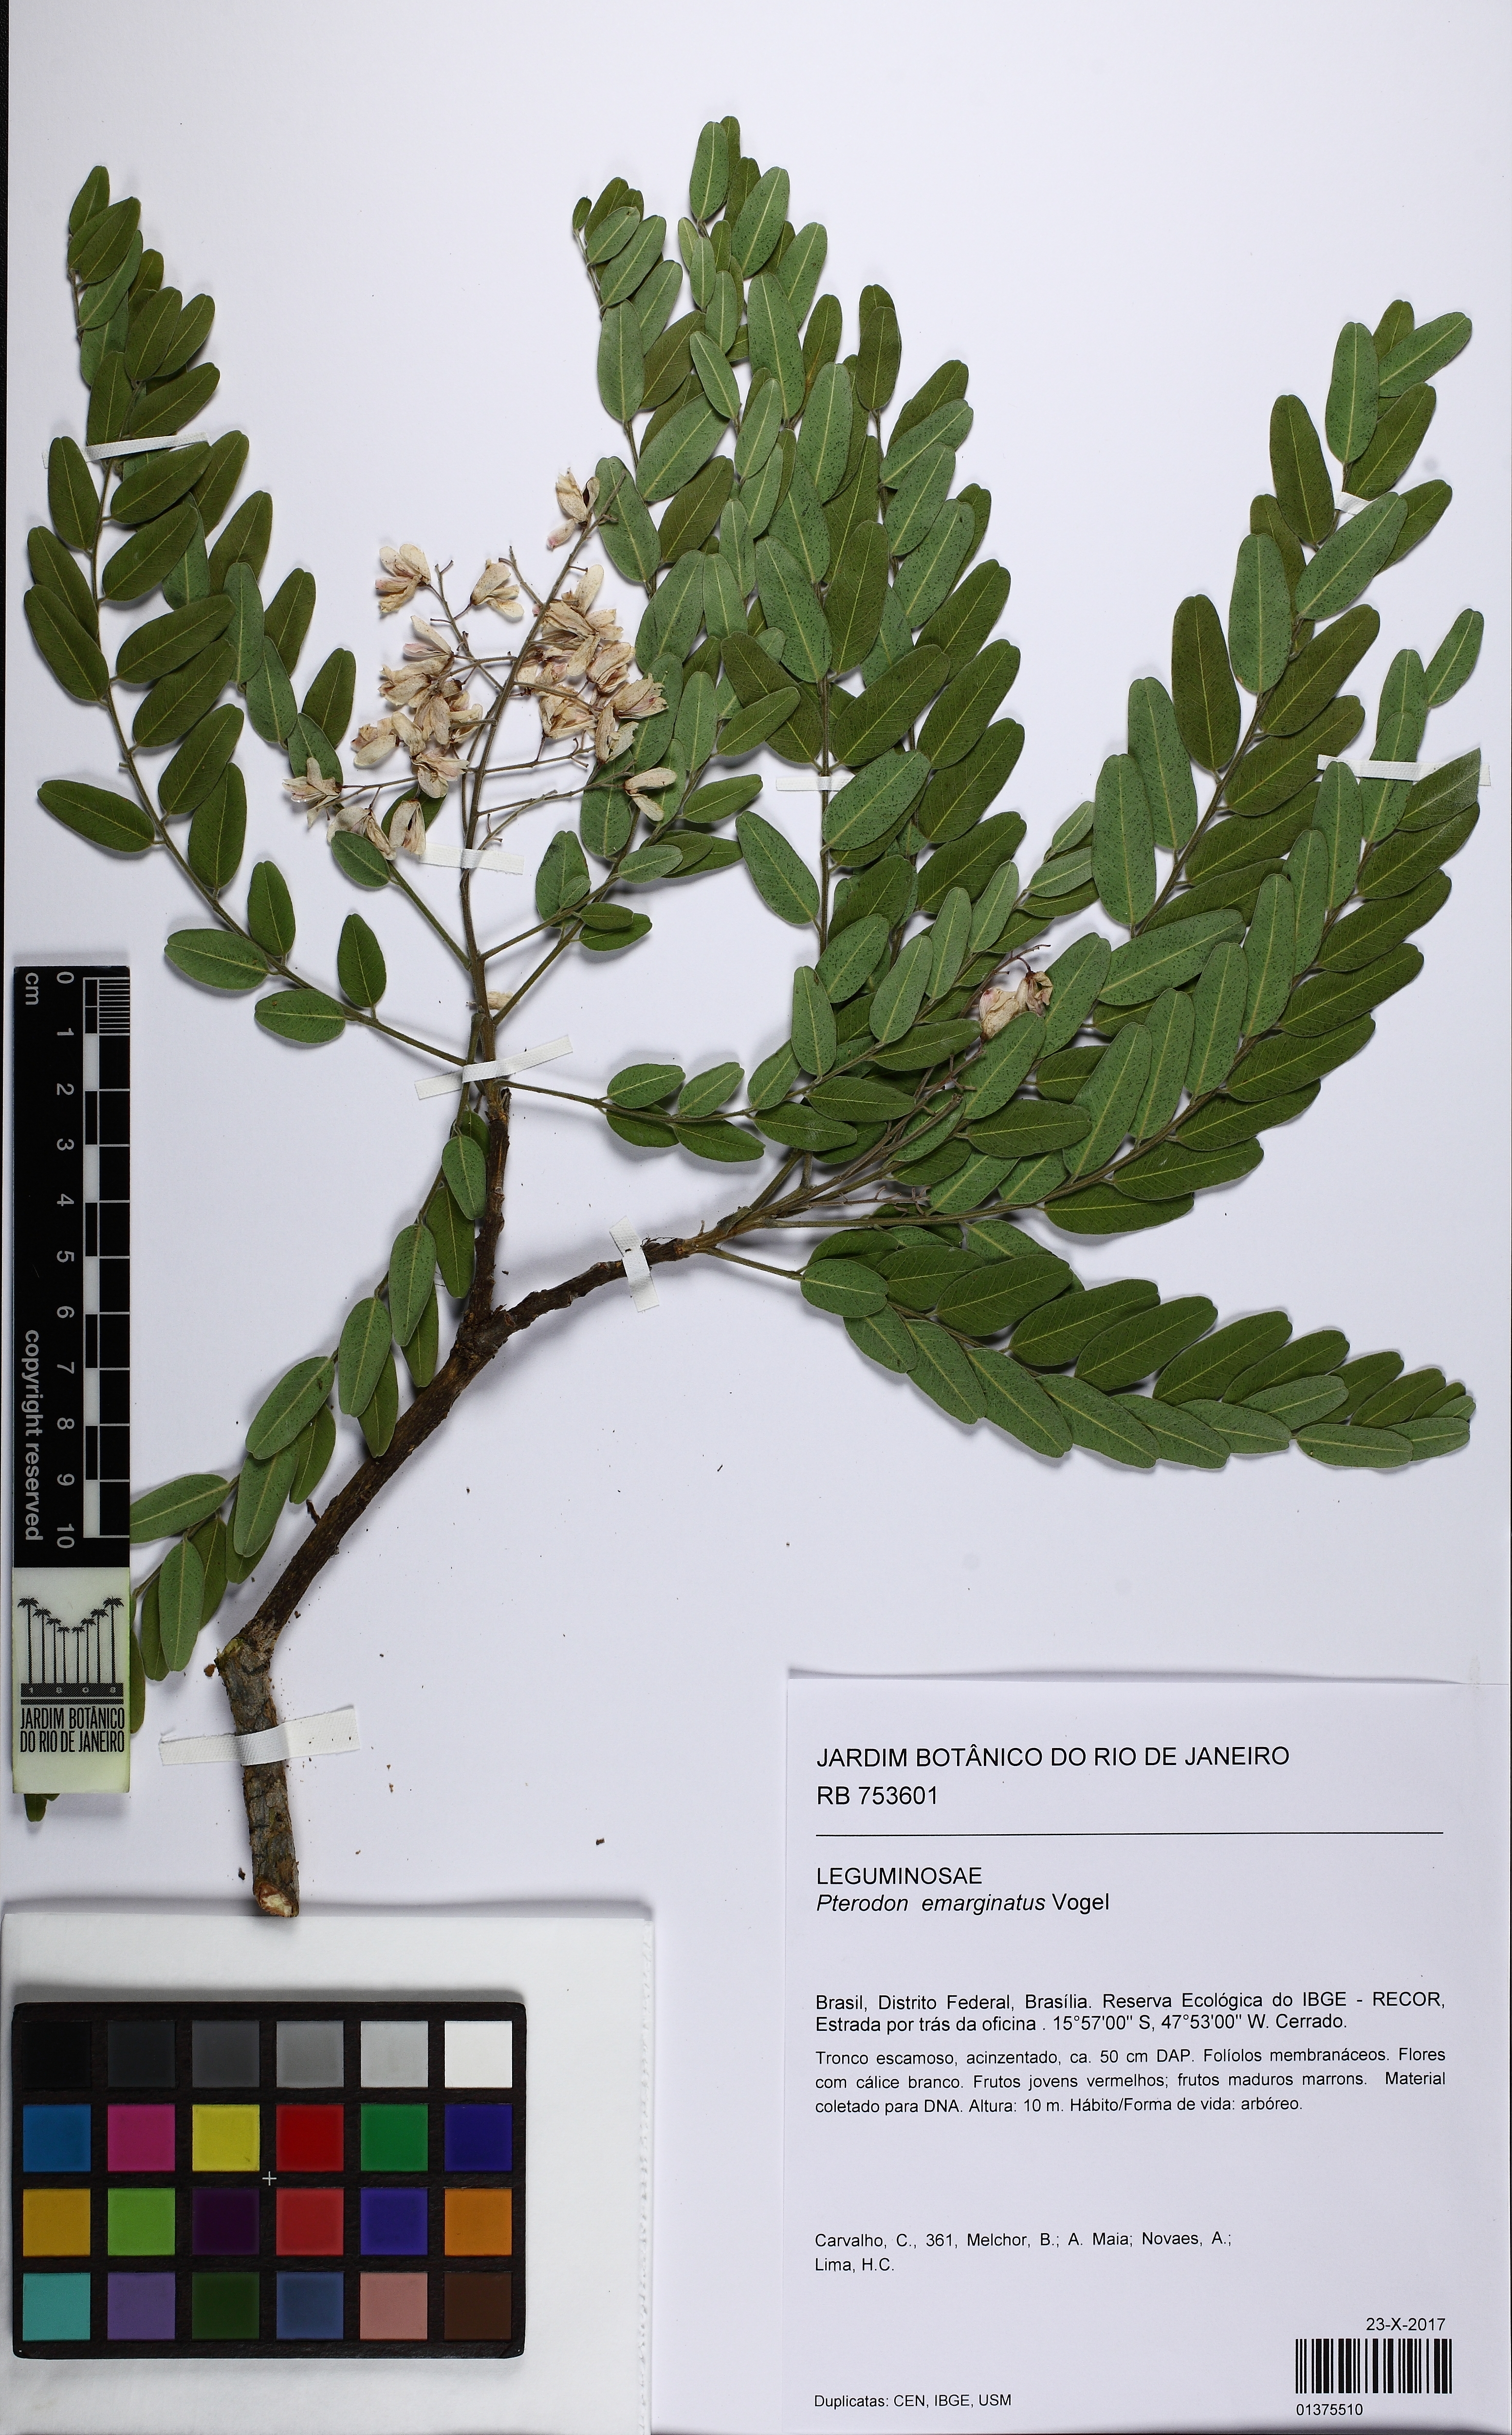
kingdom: Plantae
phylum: Tracheophyta
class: Magnoliopsida
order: Fabales
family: Fabaceae
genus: Pterodon
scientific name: Pterodon emarginatus
